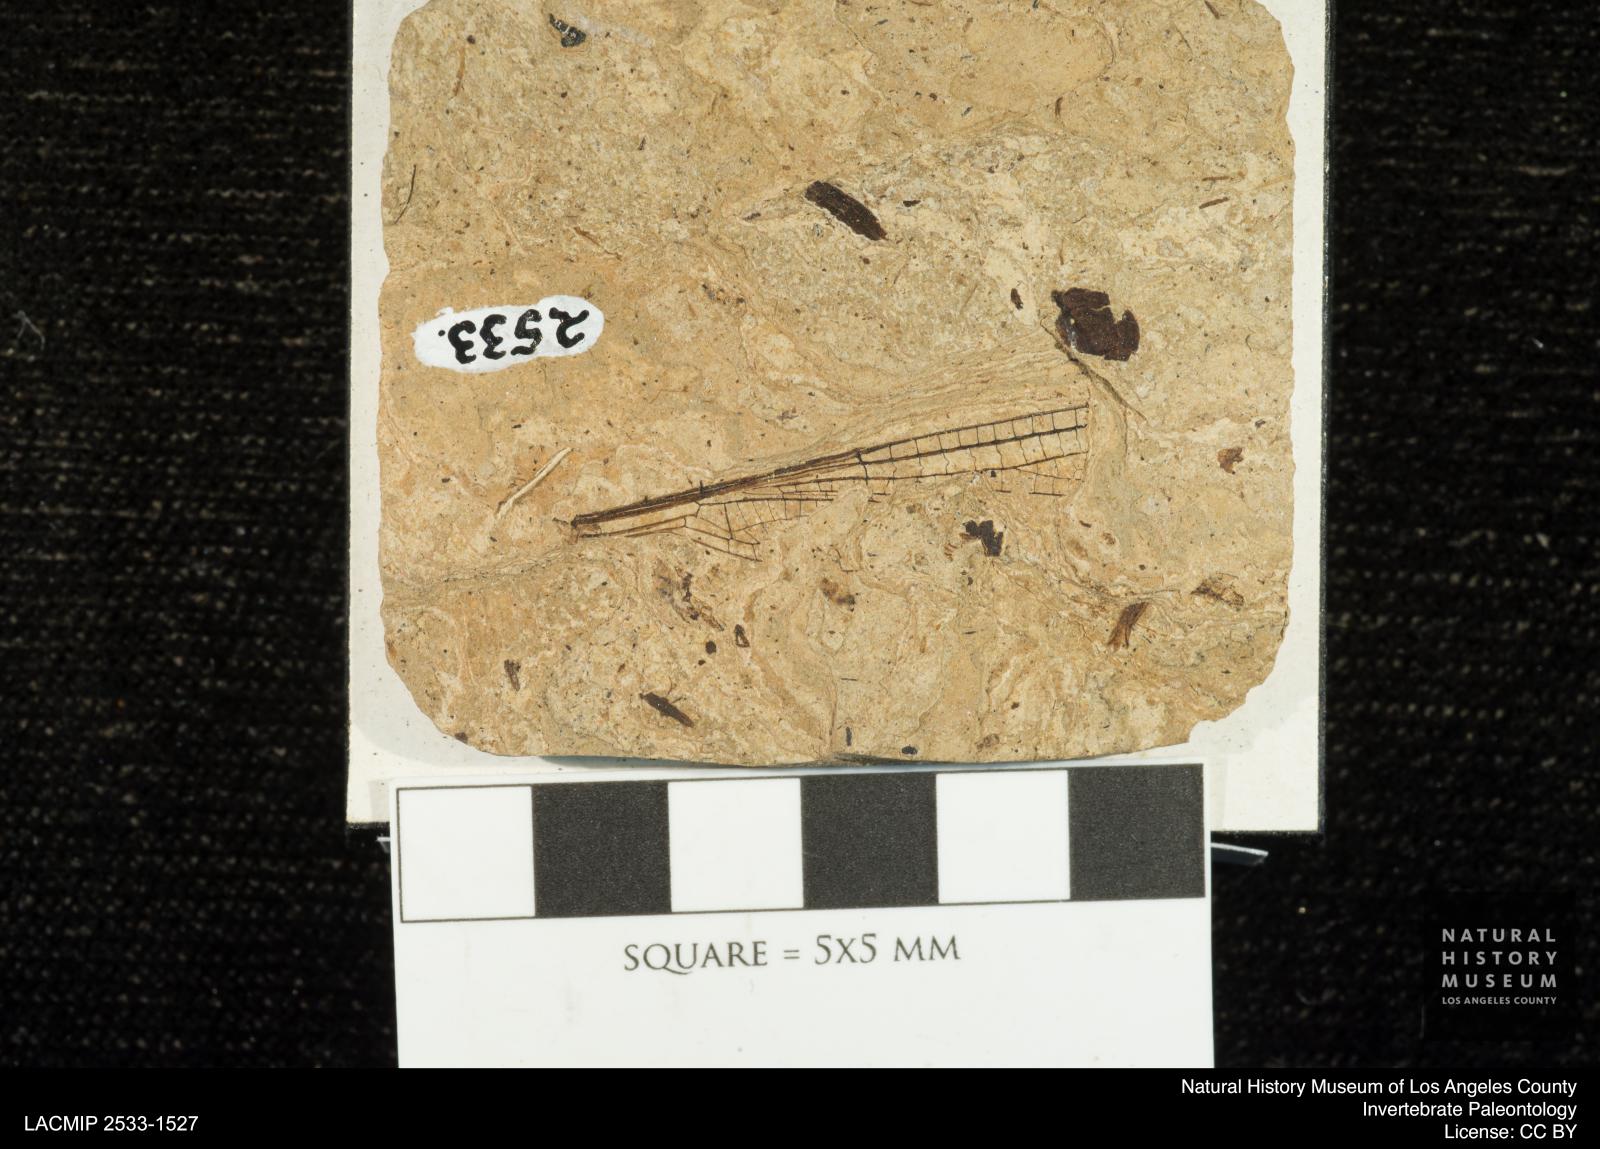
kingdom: Animalia
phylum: Arthropoda
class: Insecta
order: Odonata
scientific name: Odonata
